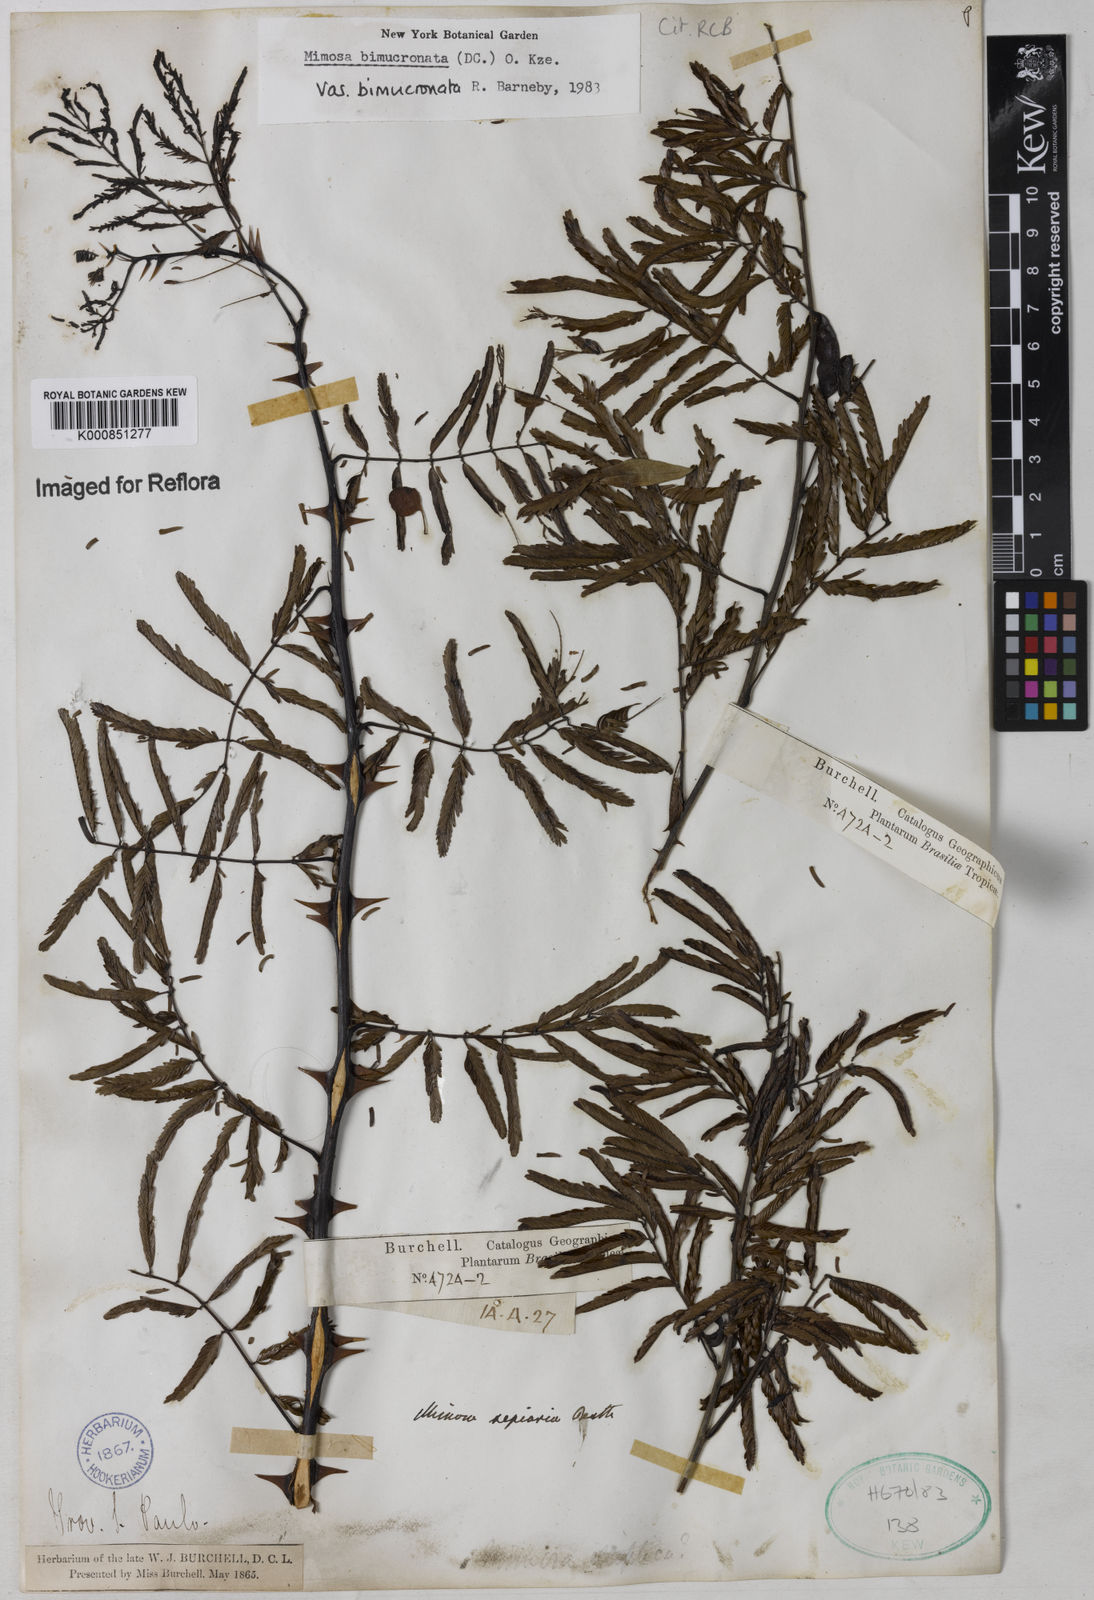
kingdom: Plantae
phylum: Tracheophyta
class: Magnoliopsida
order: Fabales
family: Fabaceae
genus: Mimosa
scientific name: Mimosa bimucronata
